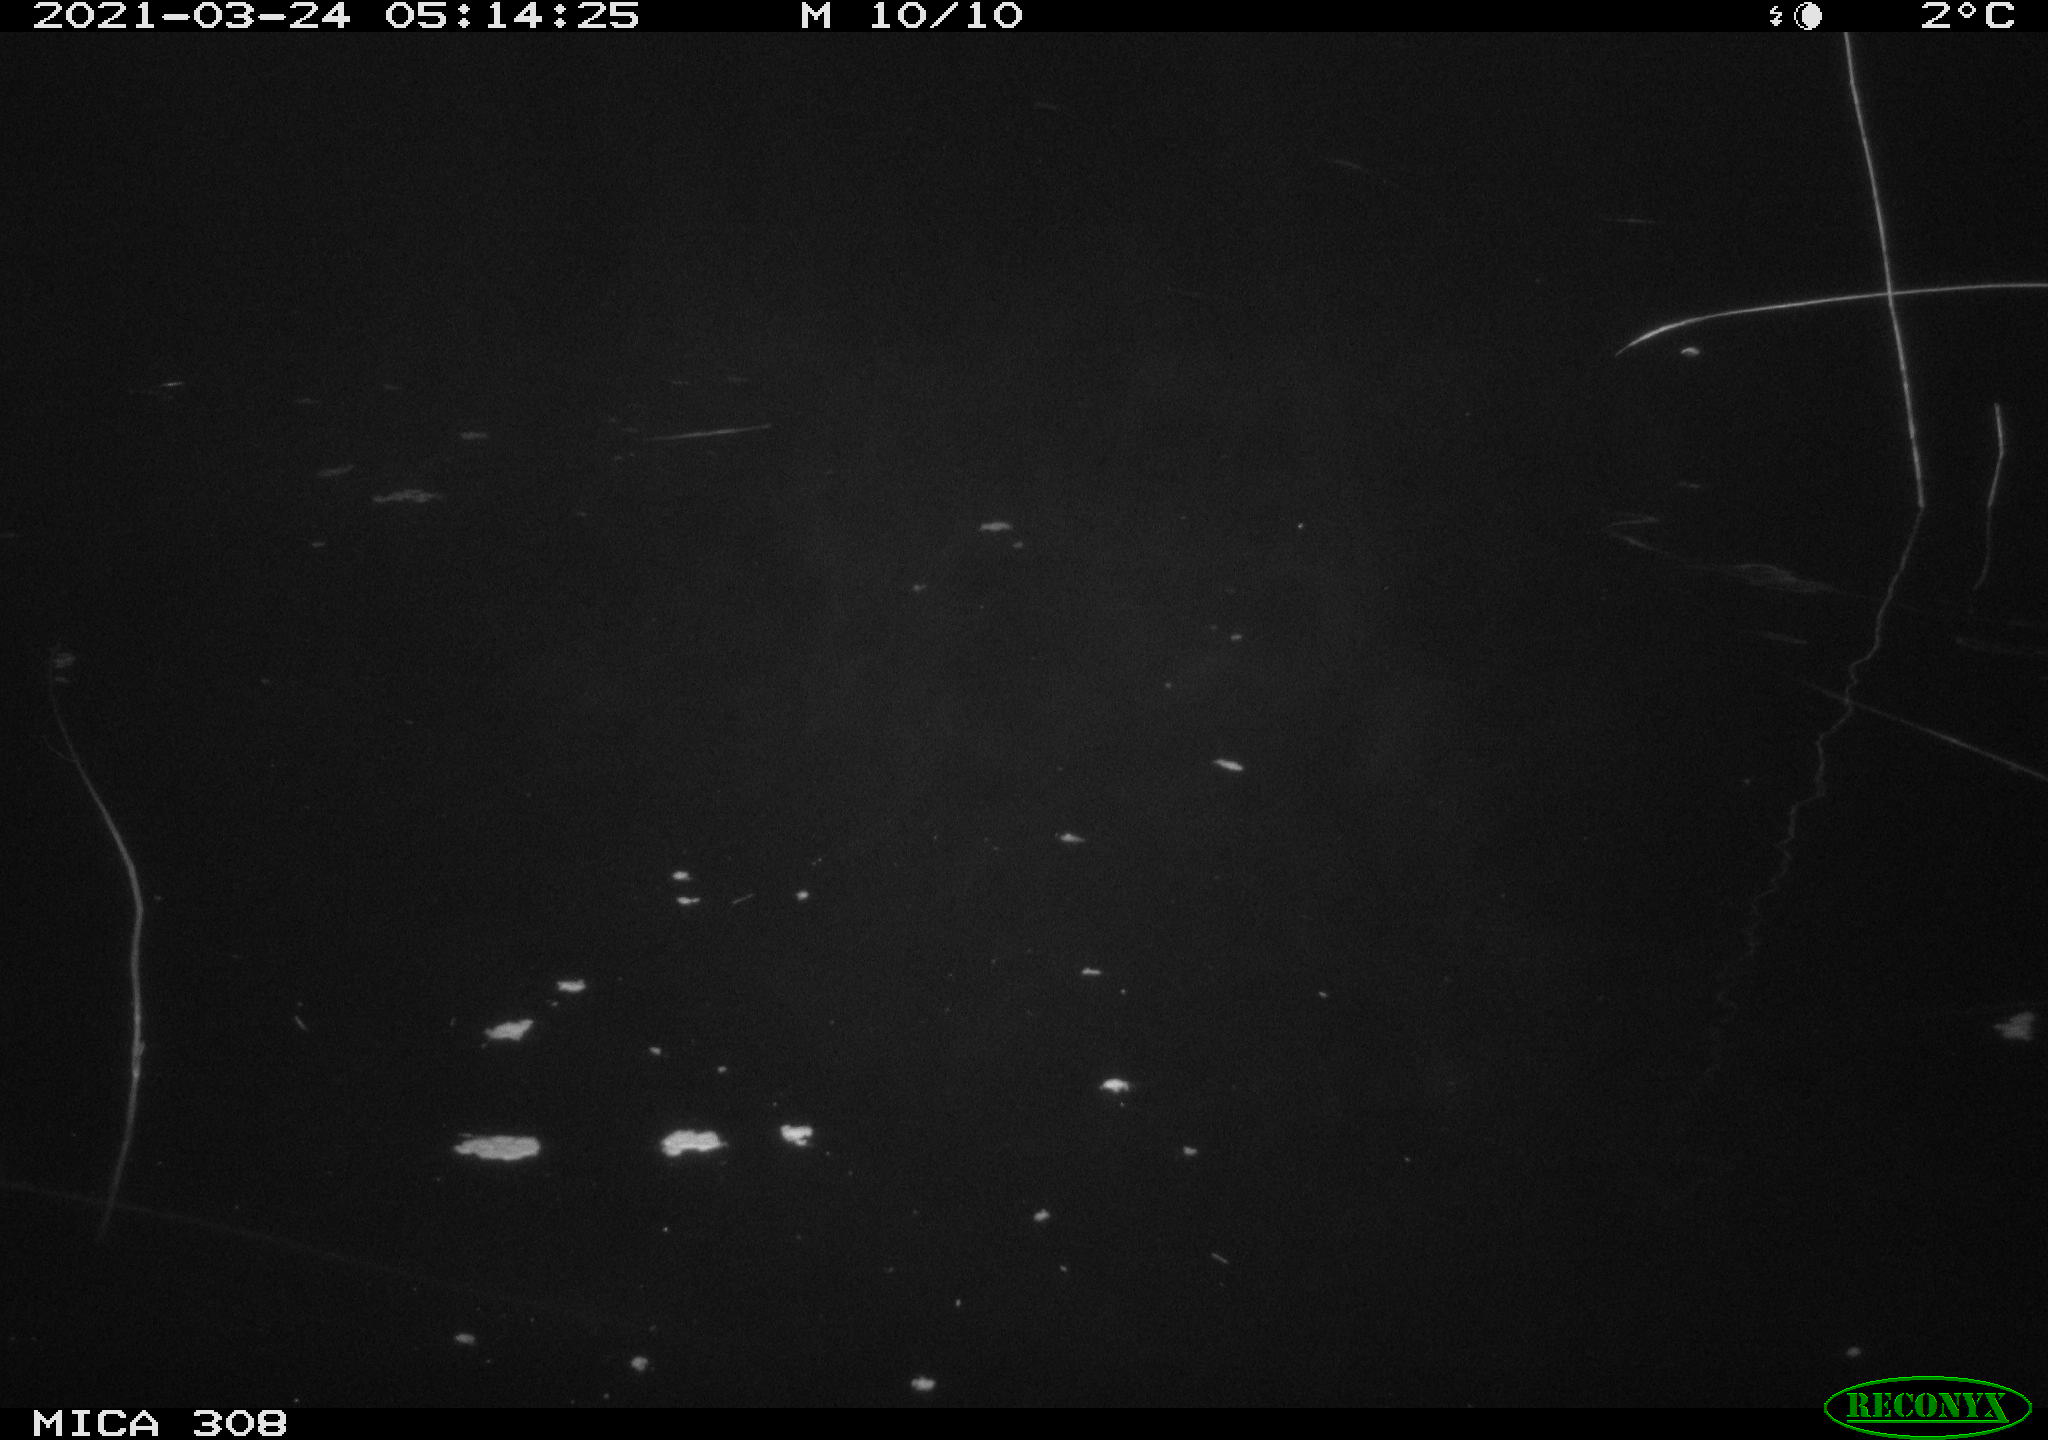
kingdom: Animalia
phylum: Chordata
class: Aves
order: Anseriformes
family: Anatidae
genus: Anas
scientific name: Anas platyrhynchos
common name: Mallard
